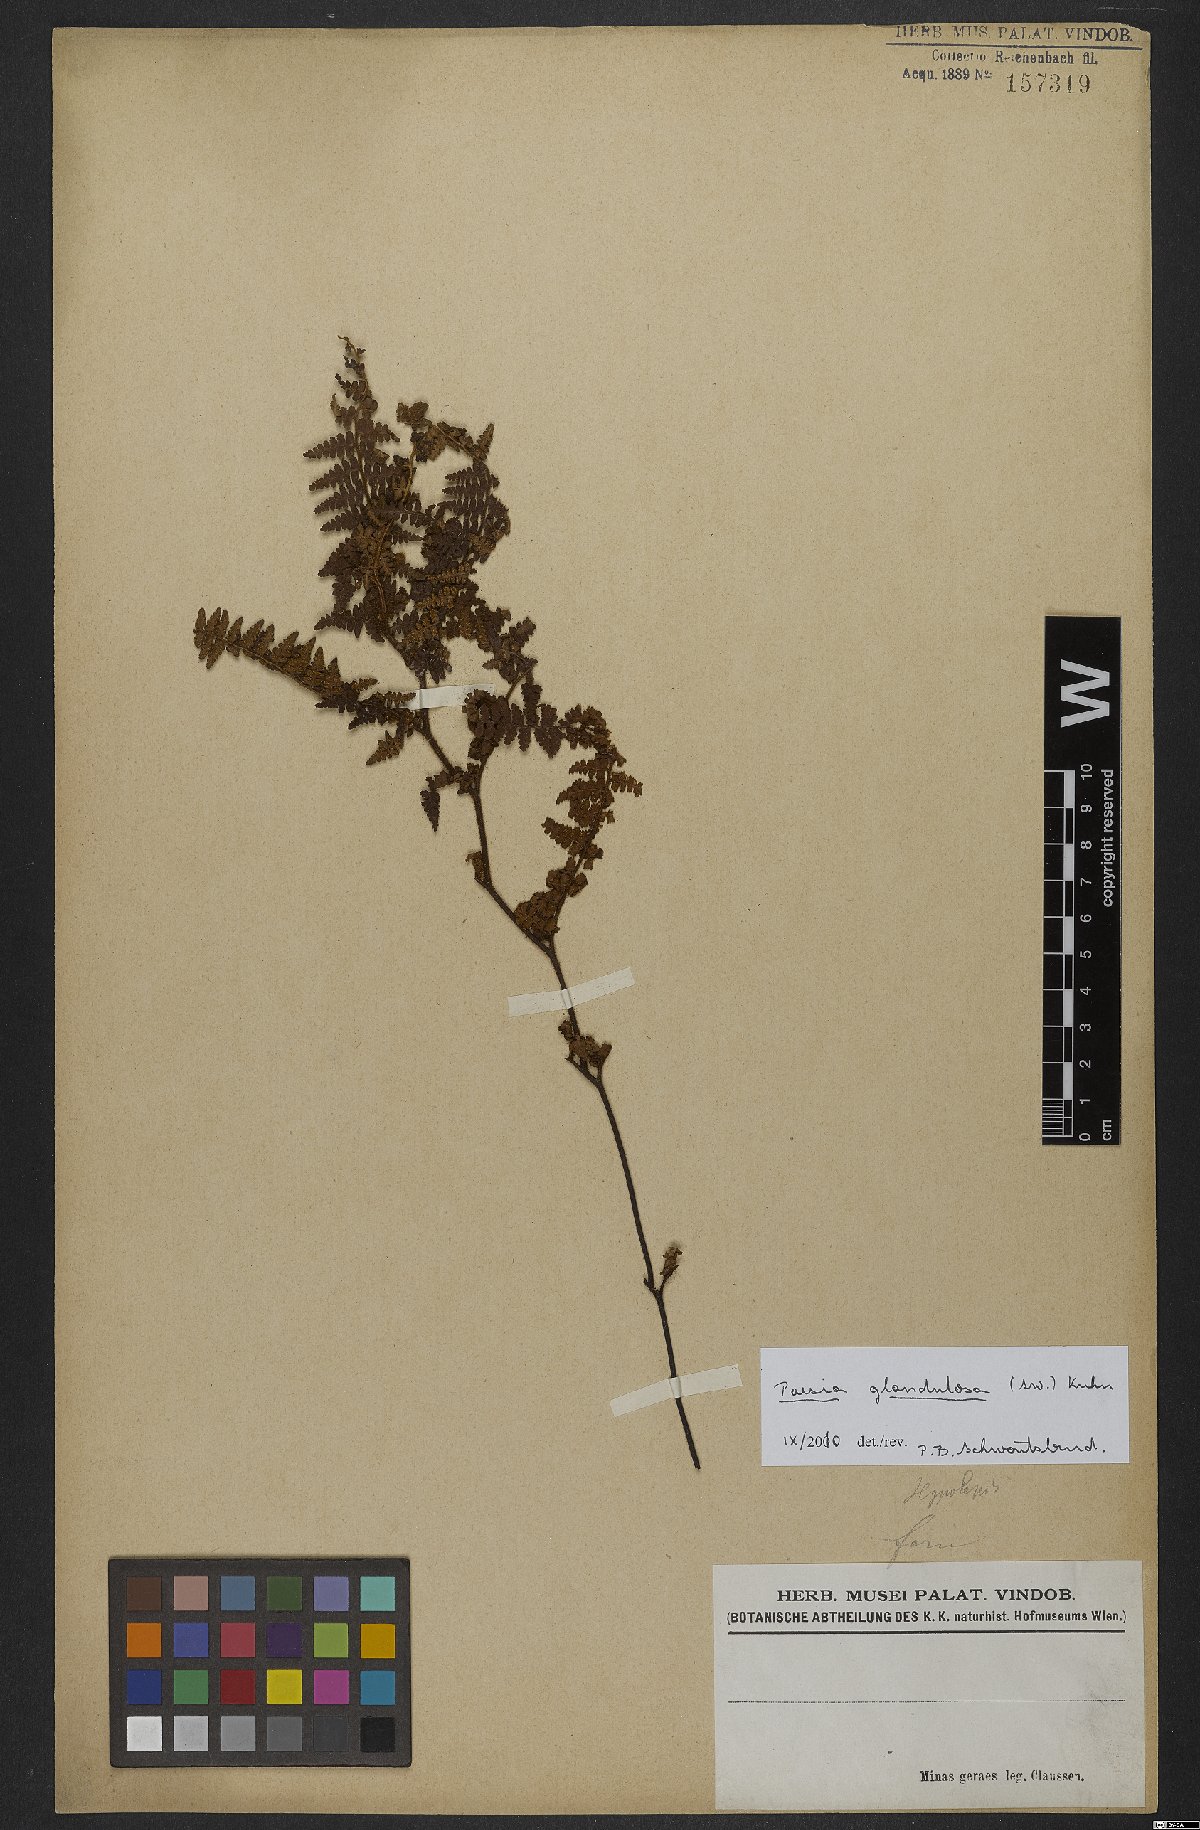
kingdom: Plantae
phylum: Tracheophyta
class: Polypodiopsida
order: Polypodiales
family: Dennstaedtiaceae
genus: Paesia
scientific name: Paesia glandulosa
